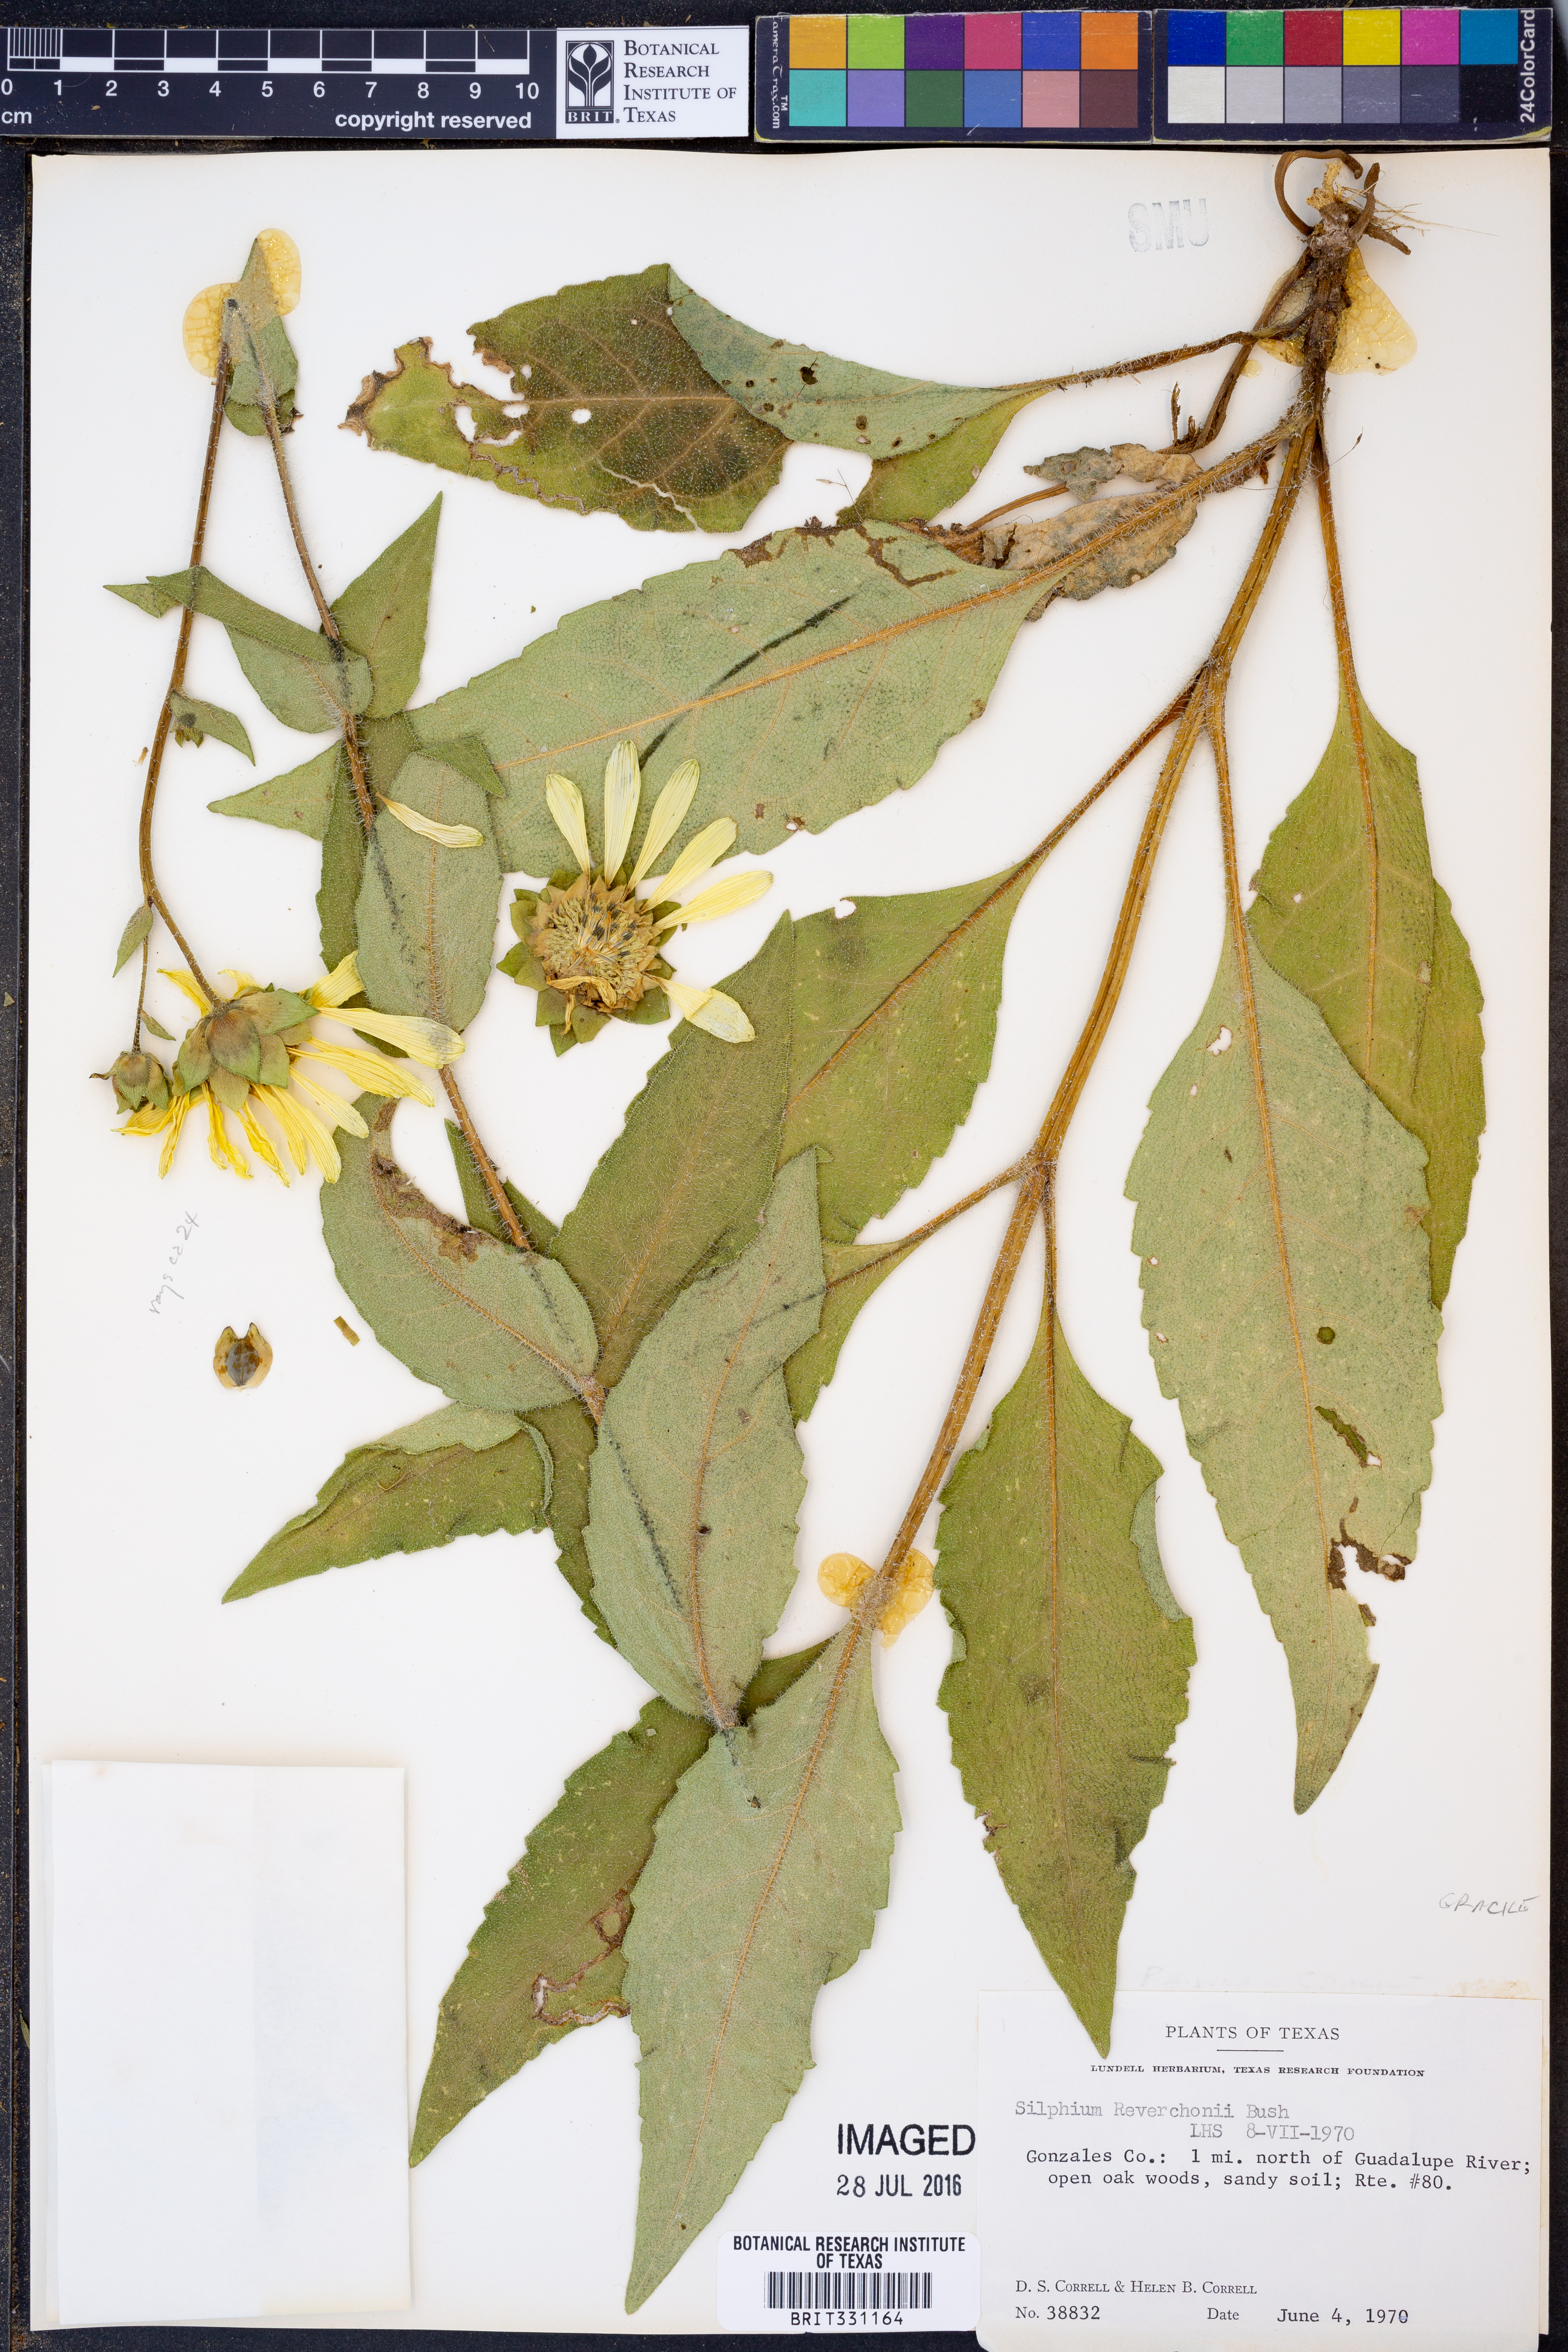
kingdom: Plantae
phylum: Tracheophyta
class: Magnoliopsida
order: Asterales
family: Asteraceae
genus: Silphium
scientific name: Silphium radula
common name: Roughleaf rosinweed
